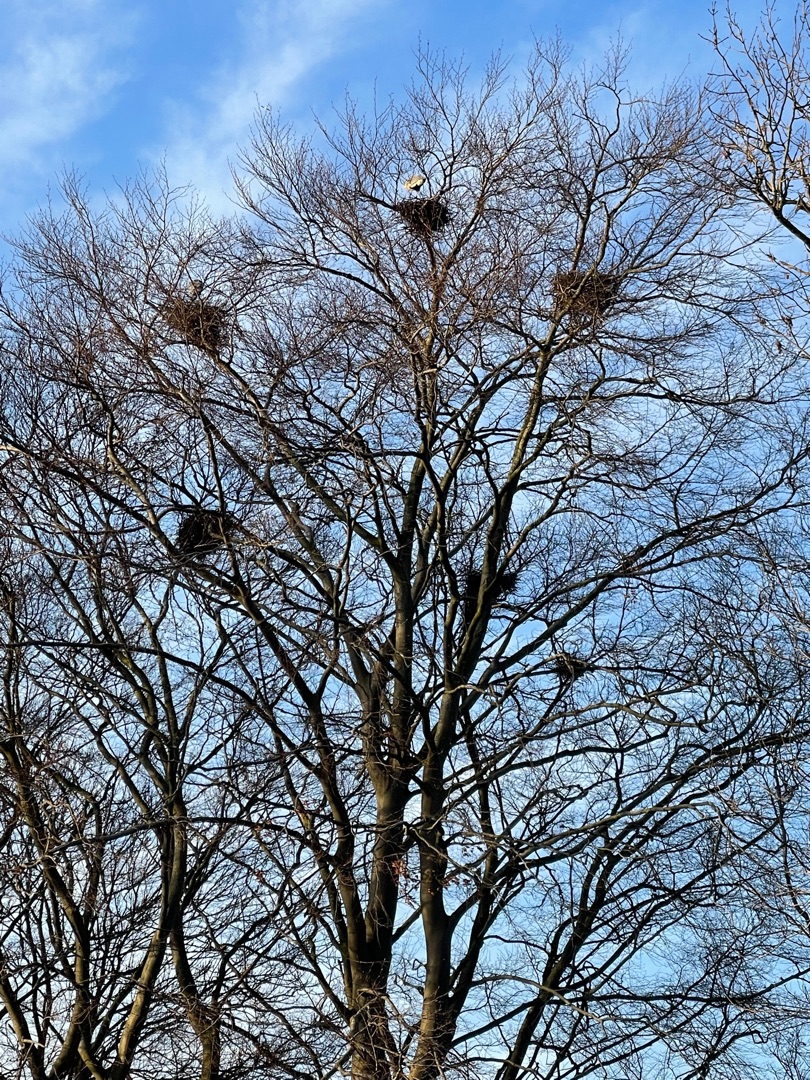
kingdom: Animalia
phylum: Chordata
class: Aves
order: Pelecaniformes
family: Ardeidae
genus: Ardea
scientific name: Ardea cinerea
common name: Fiskehejre
